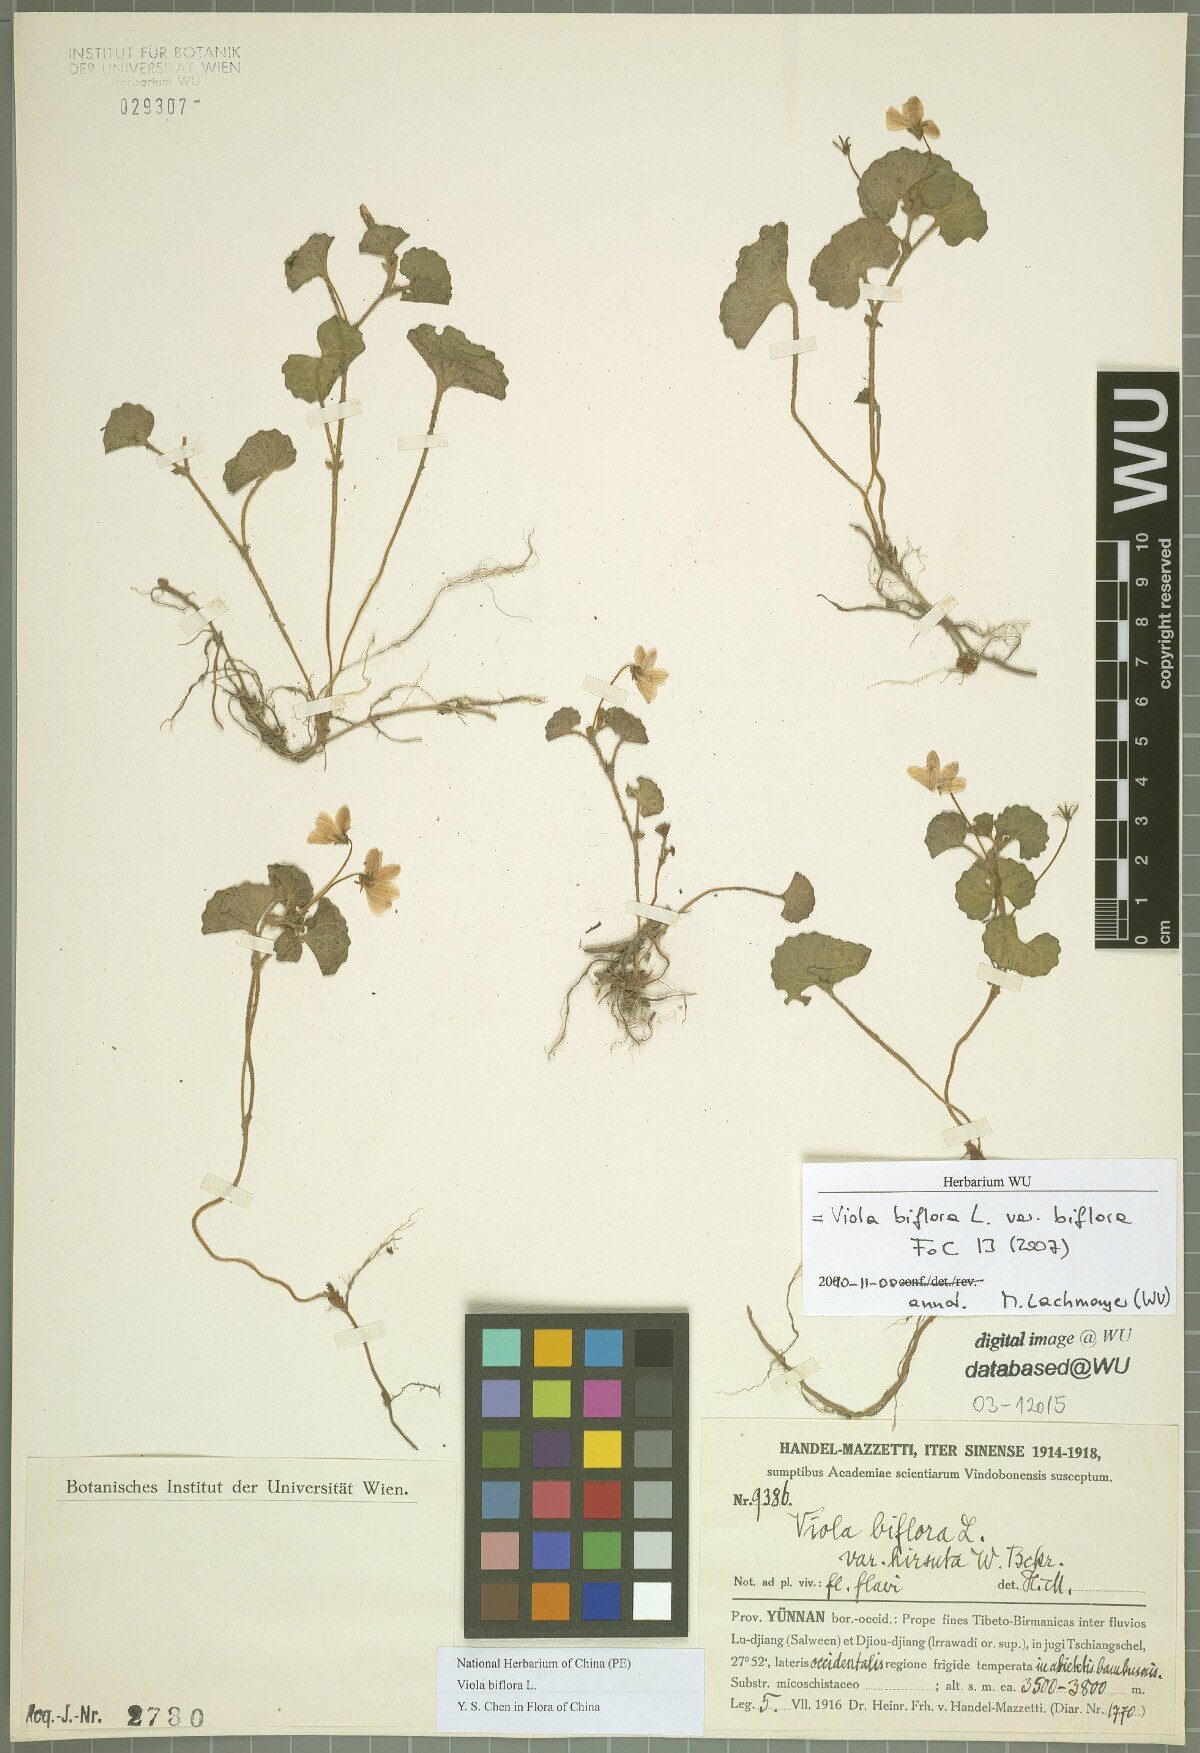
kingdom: Plantae
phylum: Tracheophyta
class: Magnoliopsida
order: Malpighiales
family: Violaceae
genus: Viola
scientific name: Viola biflora
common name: Alpine yellow violet
